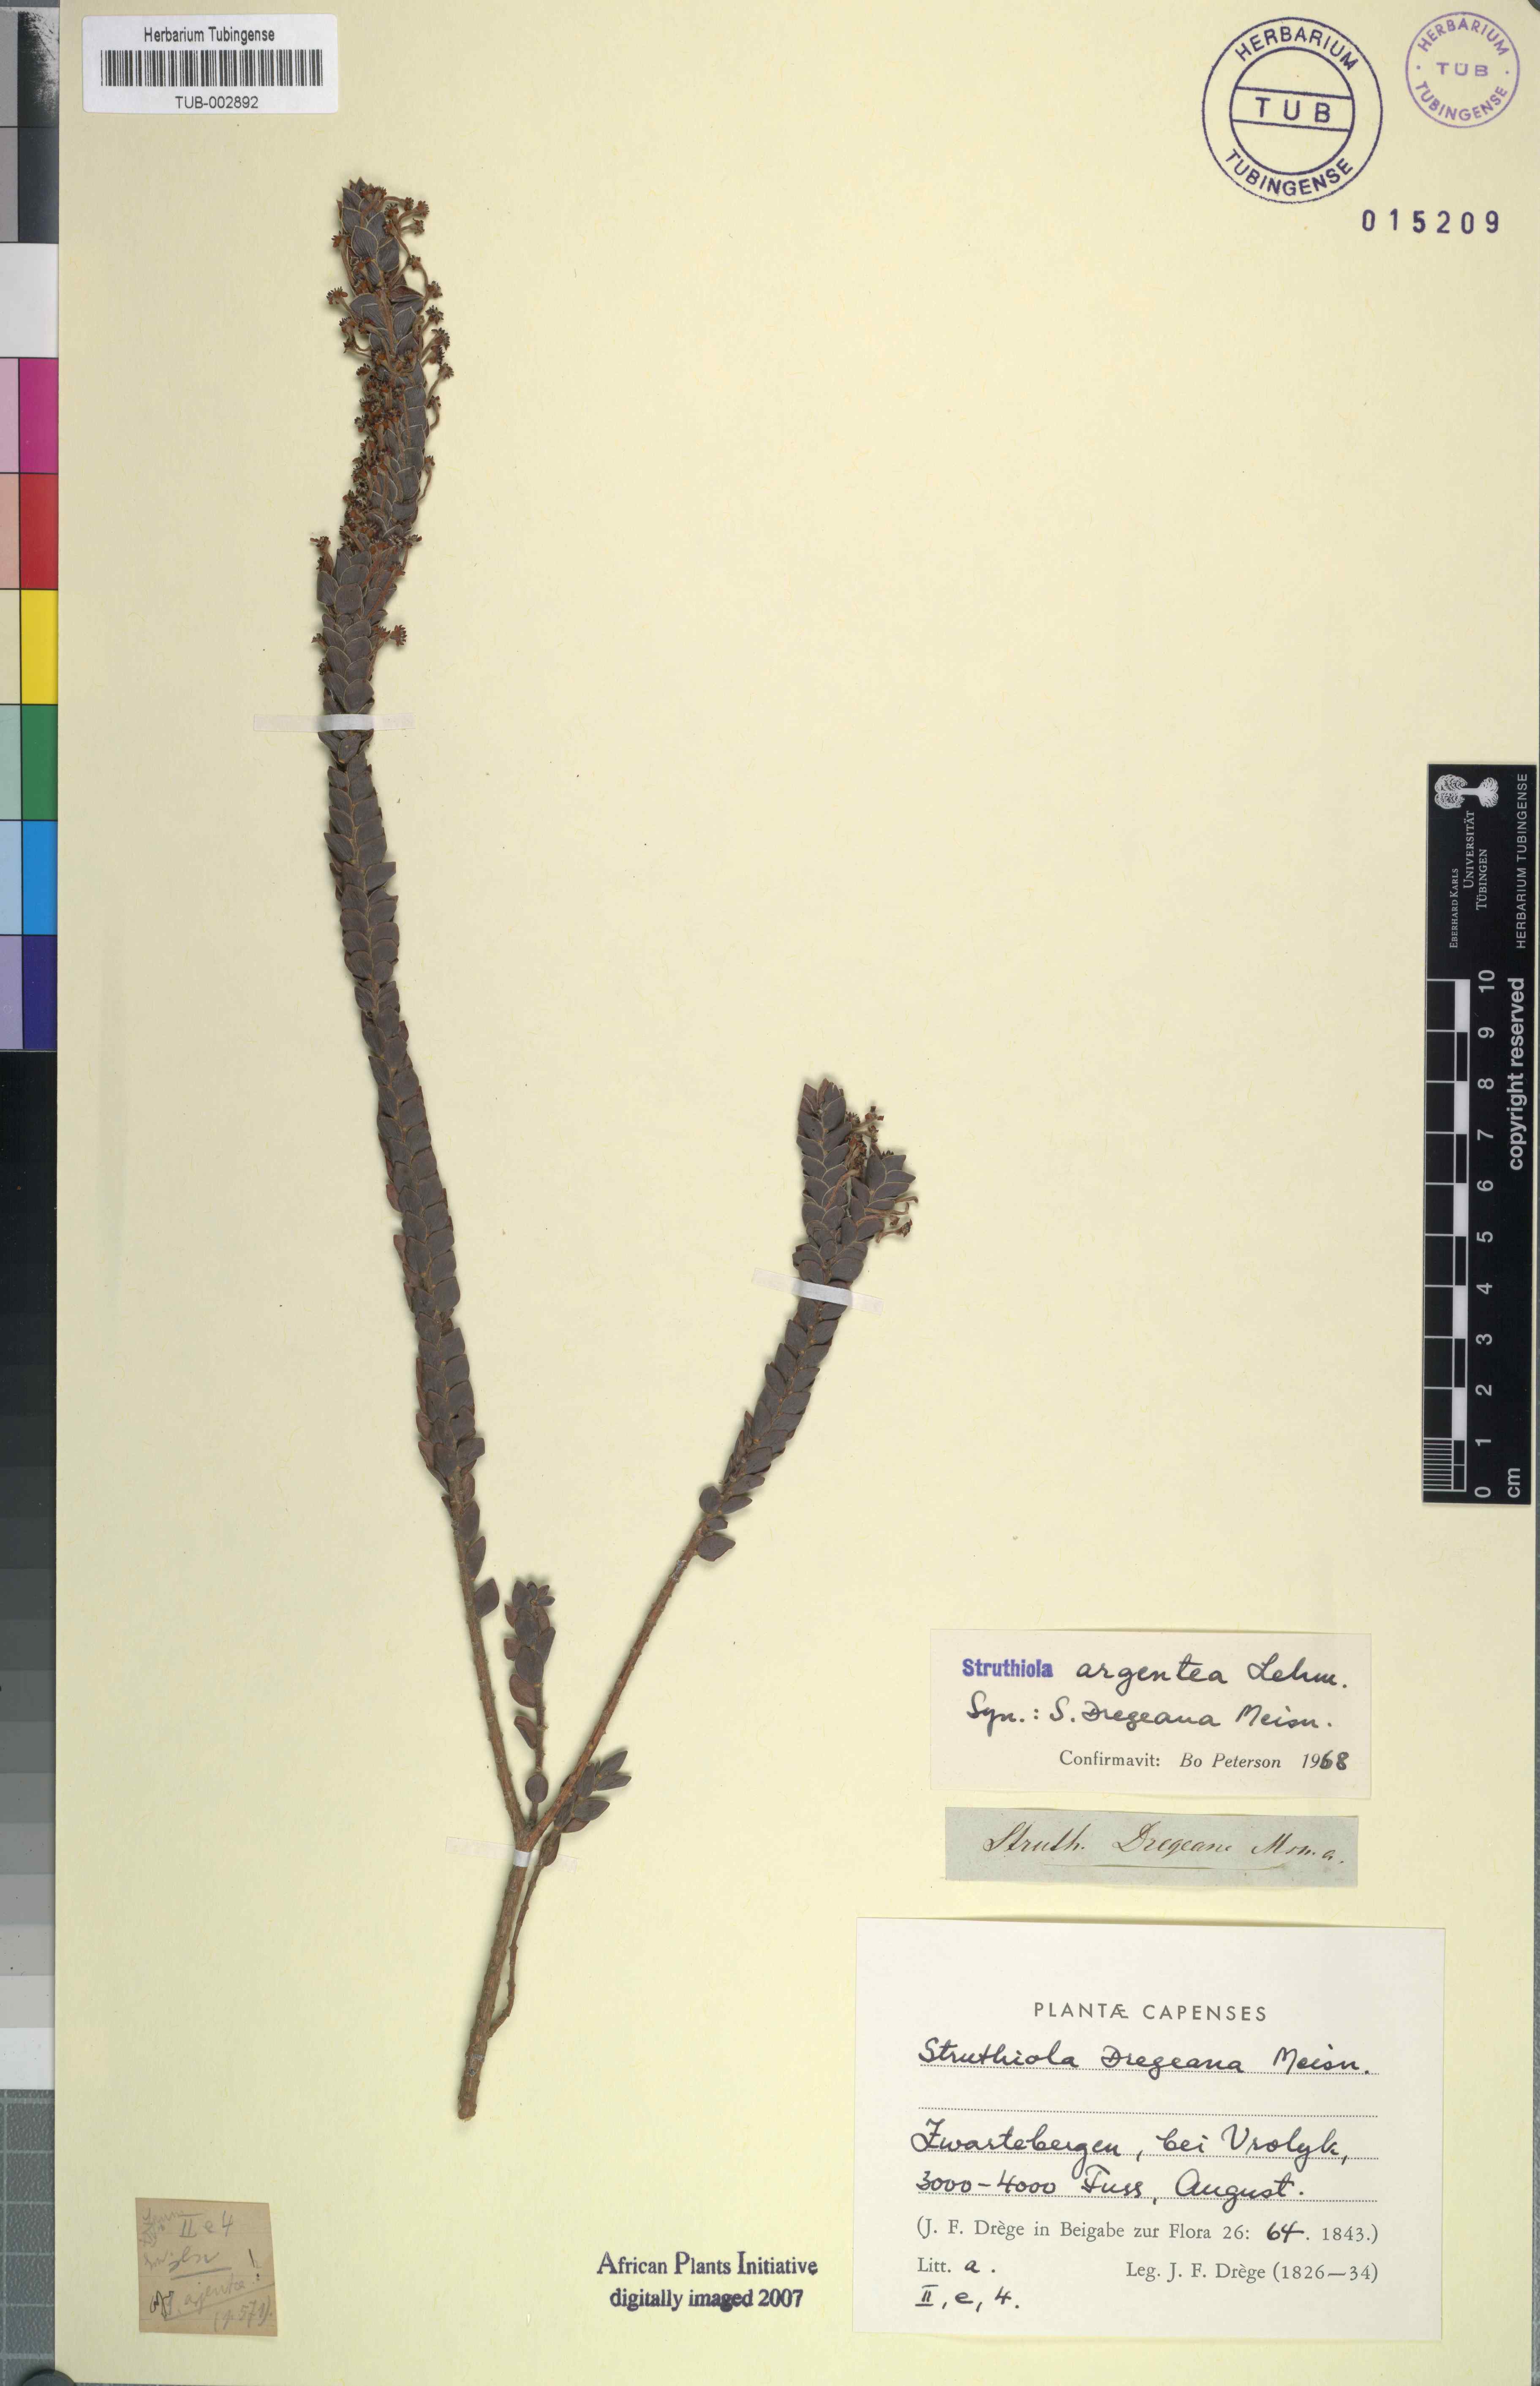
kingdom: Plantae
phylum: Tracheophyta
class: Magnoliopsida
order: Malvales
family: Thymelaeaceae
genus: Struthiola
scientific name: Struthiola argentea
